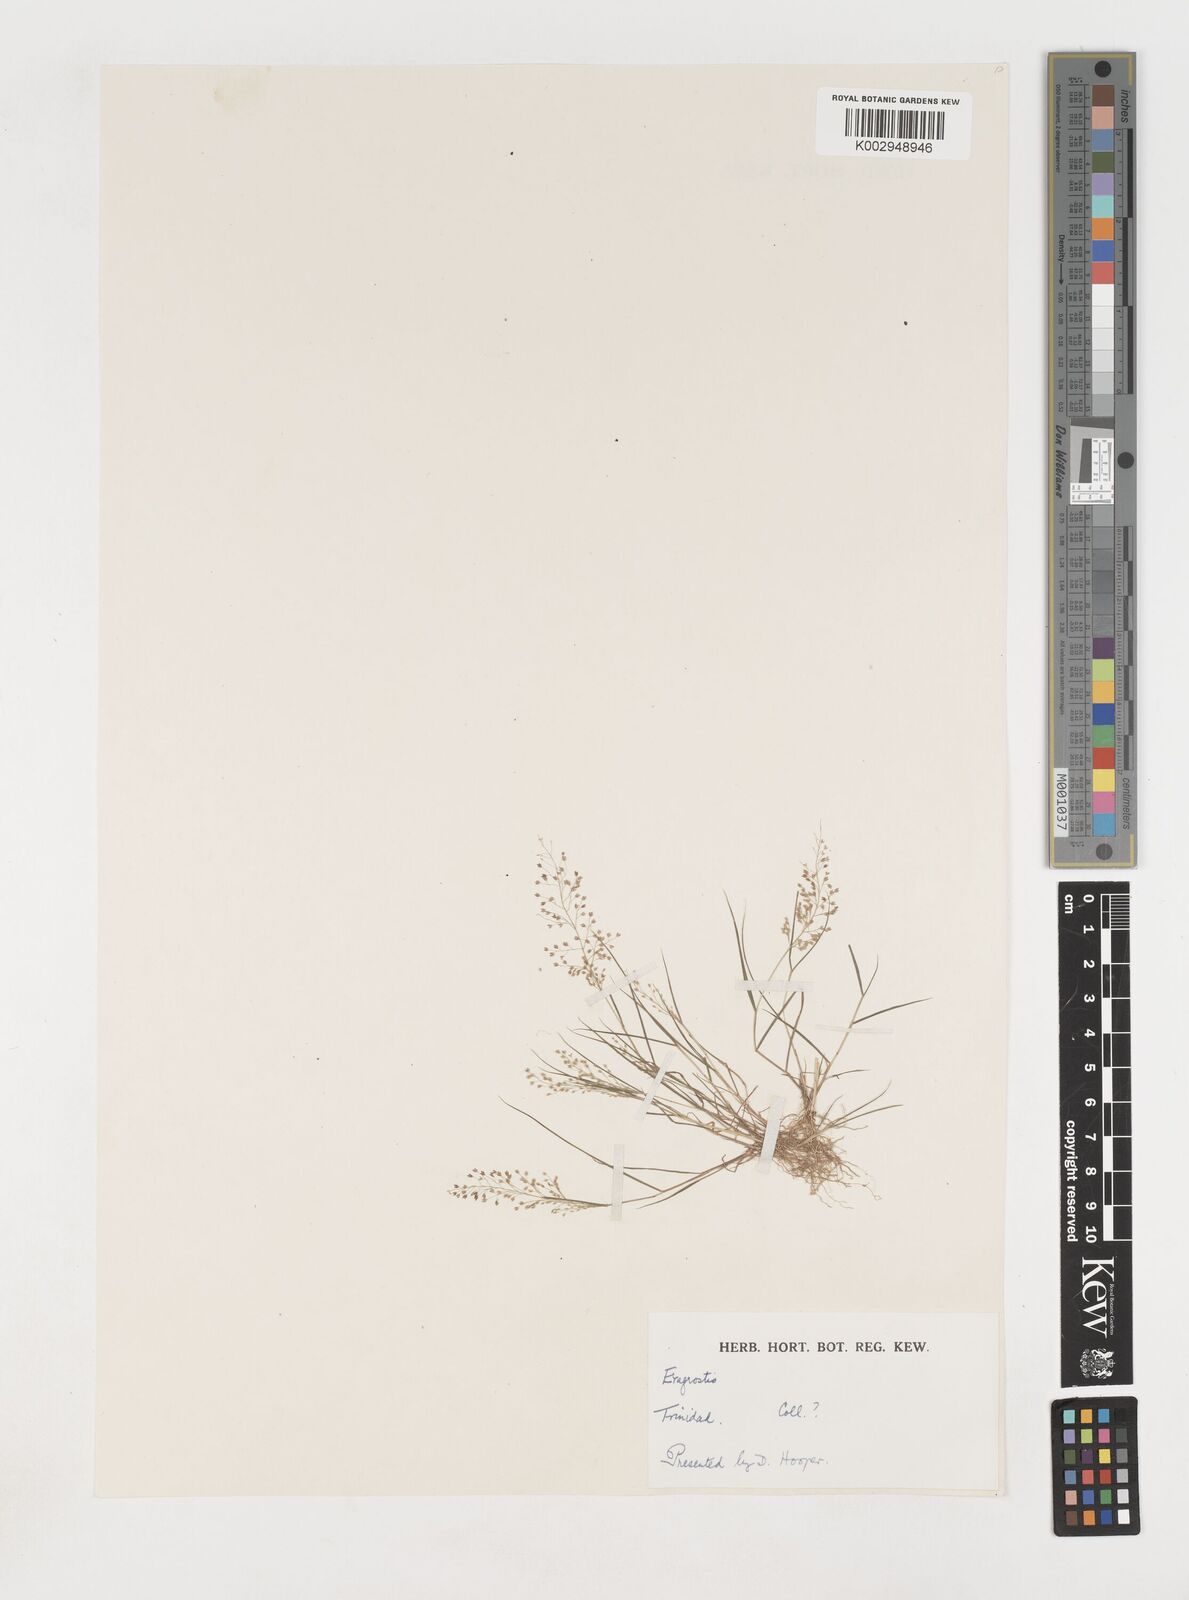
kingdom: Plantae
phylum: Tracheophyta
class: Liliopsida
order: Poales
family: Poaceae
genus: Eragrostis
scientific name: Eragrostis tenella
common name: Japanese lovegrass
